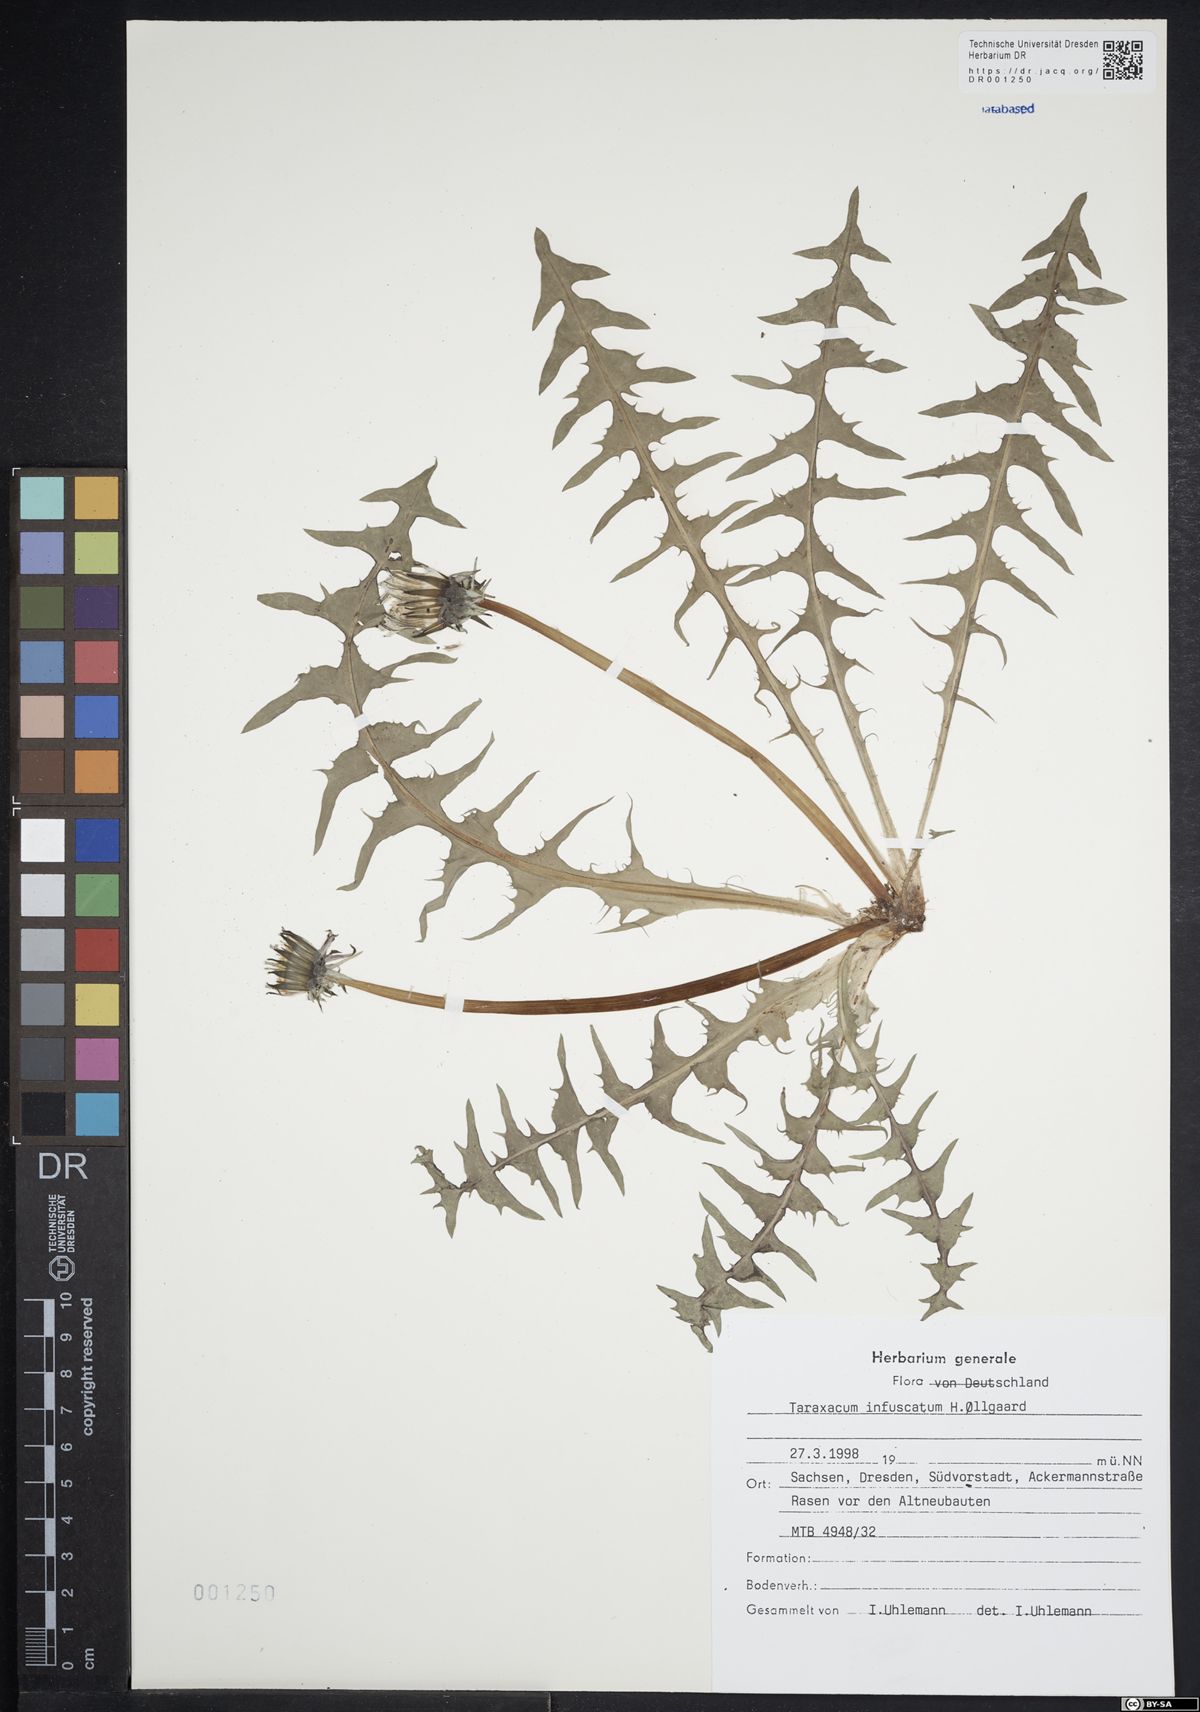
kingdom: Plantae
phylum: Tracheophyta
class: Magnoliopsida
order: Asterales
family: Asteraceae
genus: Taraxacum
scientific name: Taraxacum infuscatum
